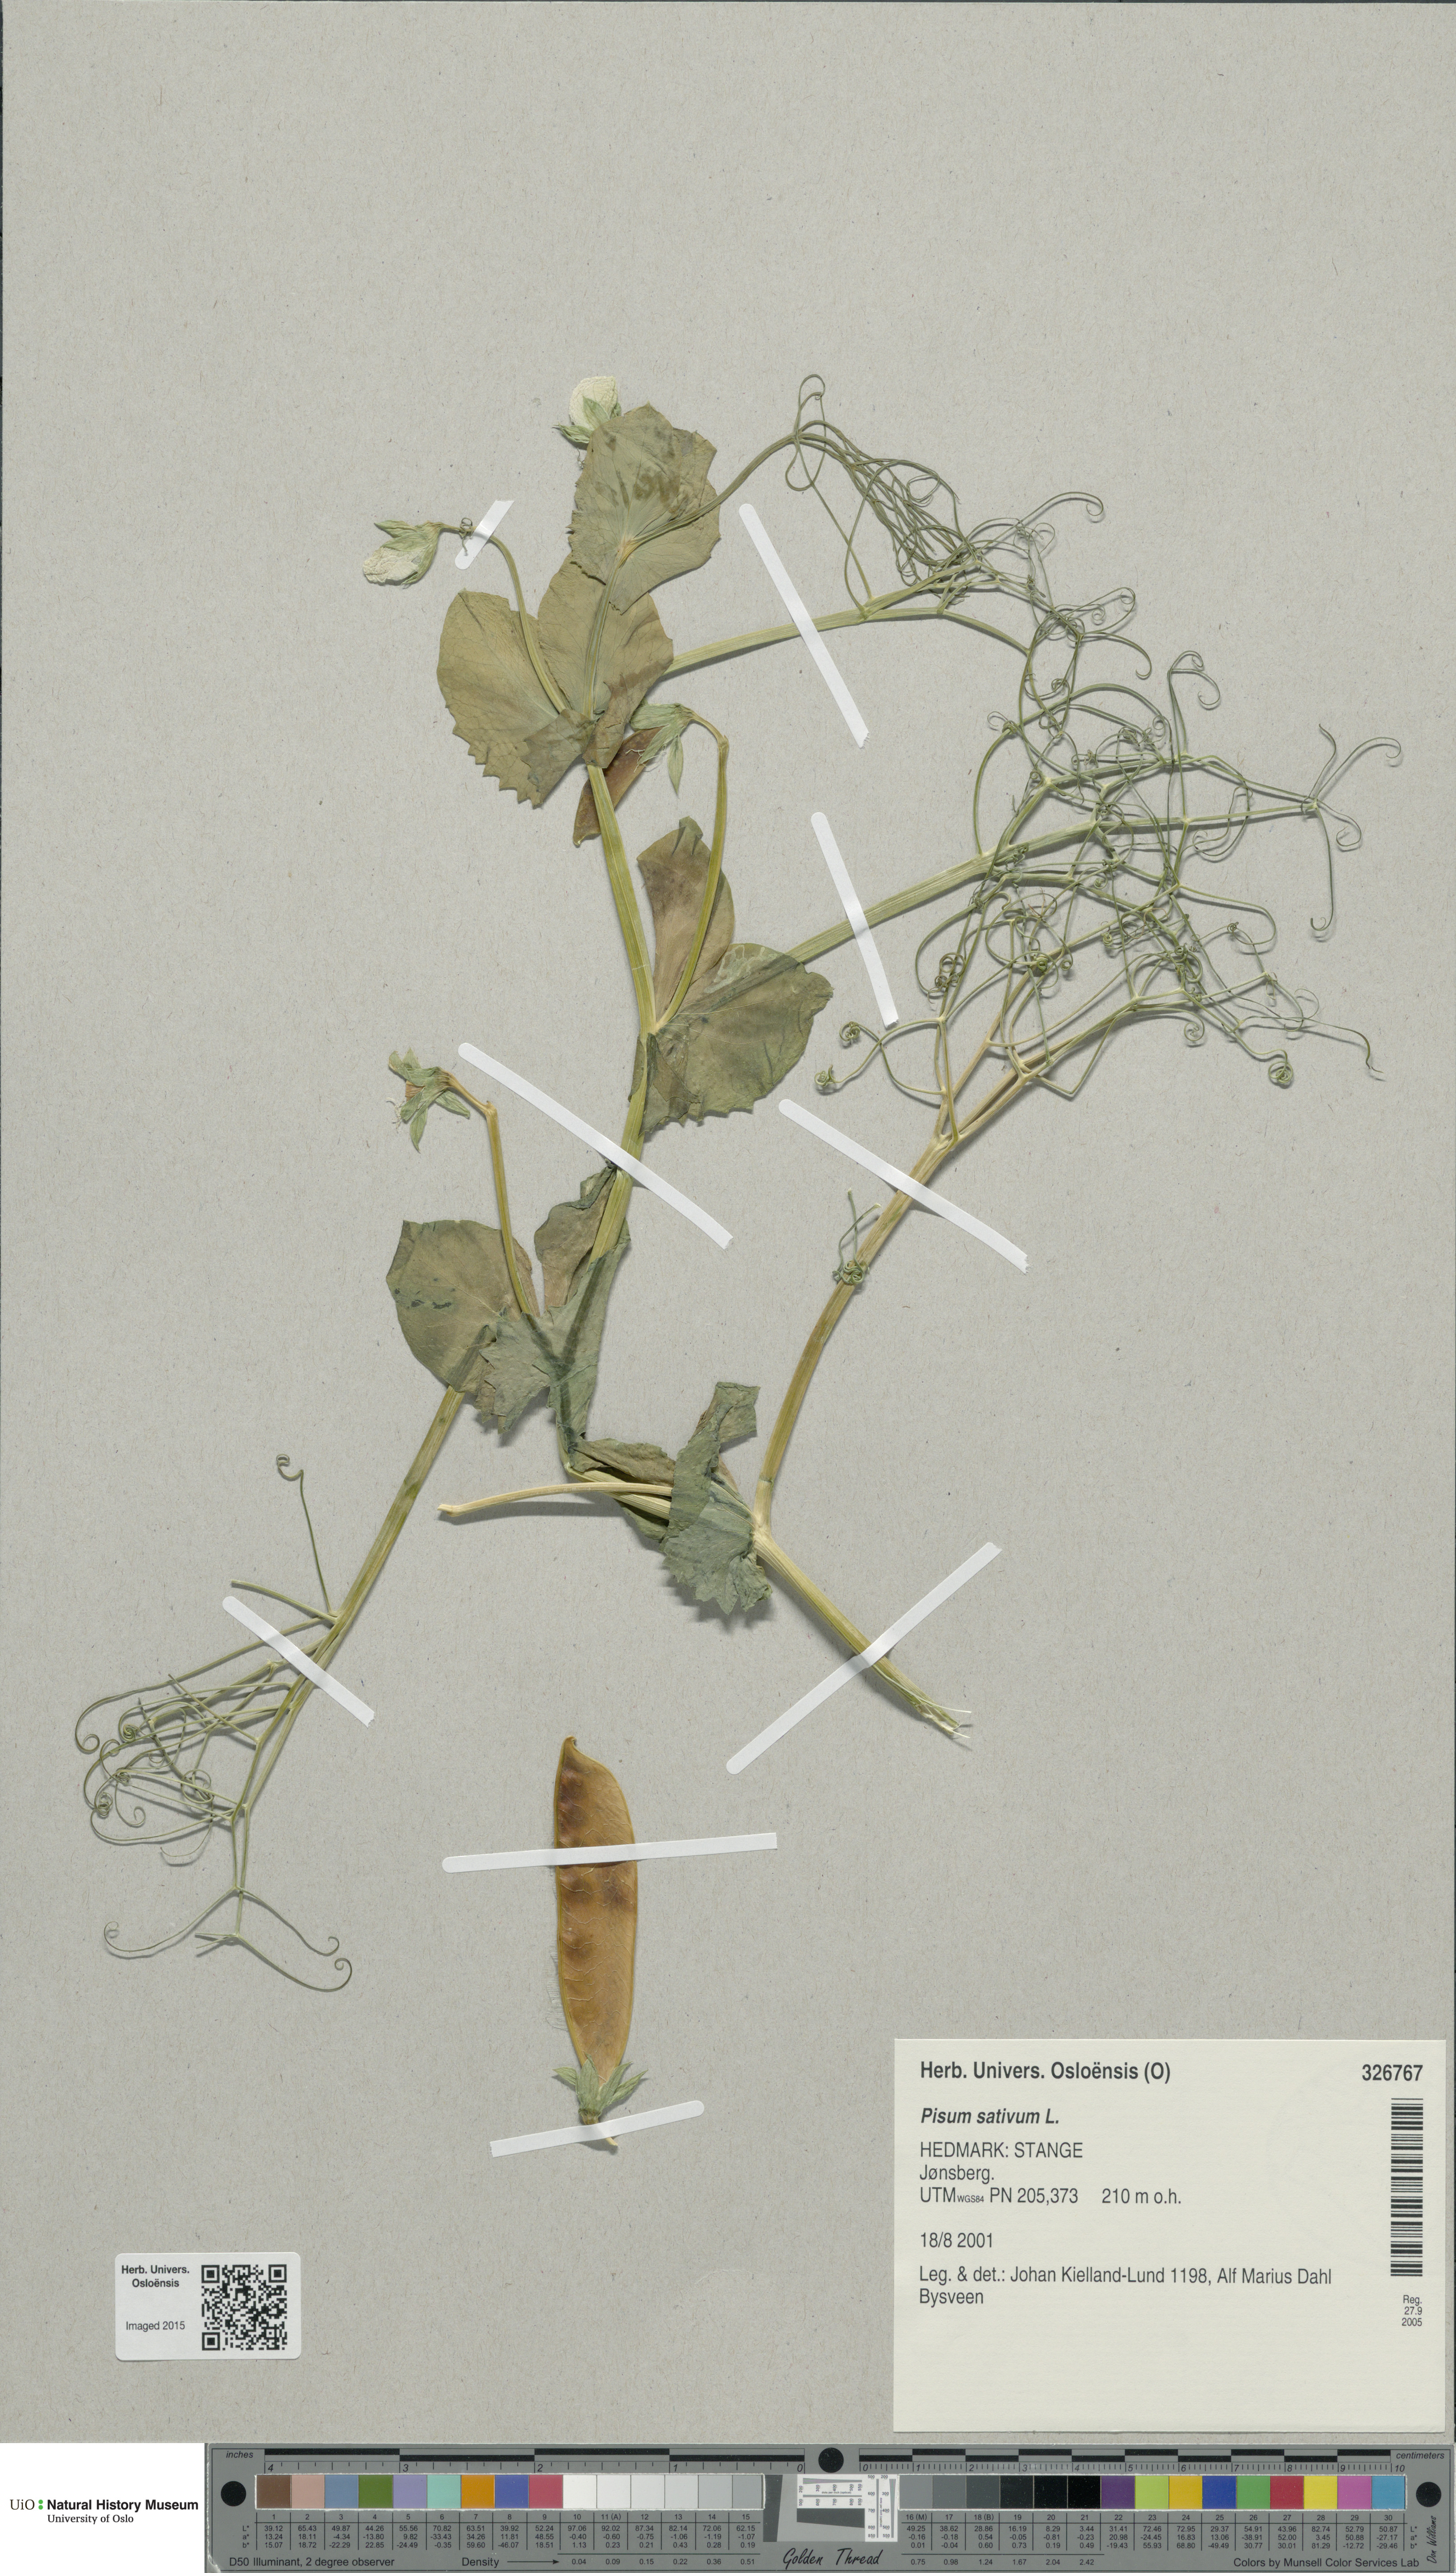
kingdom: Plantae
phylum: Tracheophyta
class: Magnoliopsida
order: Fabales
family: Fabaceae
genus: Lathyrus
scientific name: Lathyrus oleraceus
